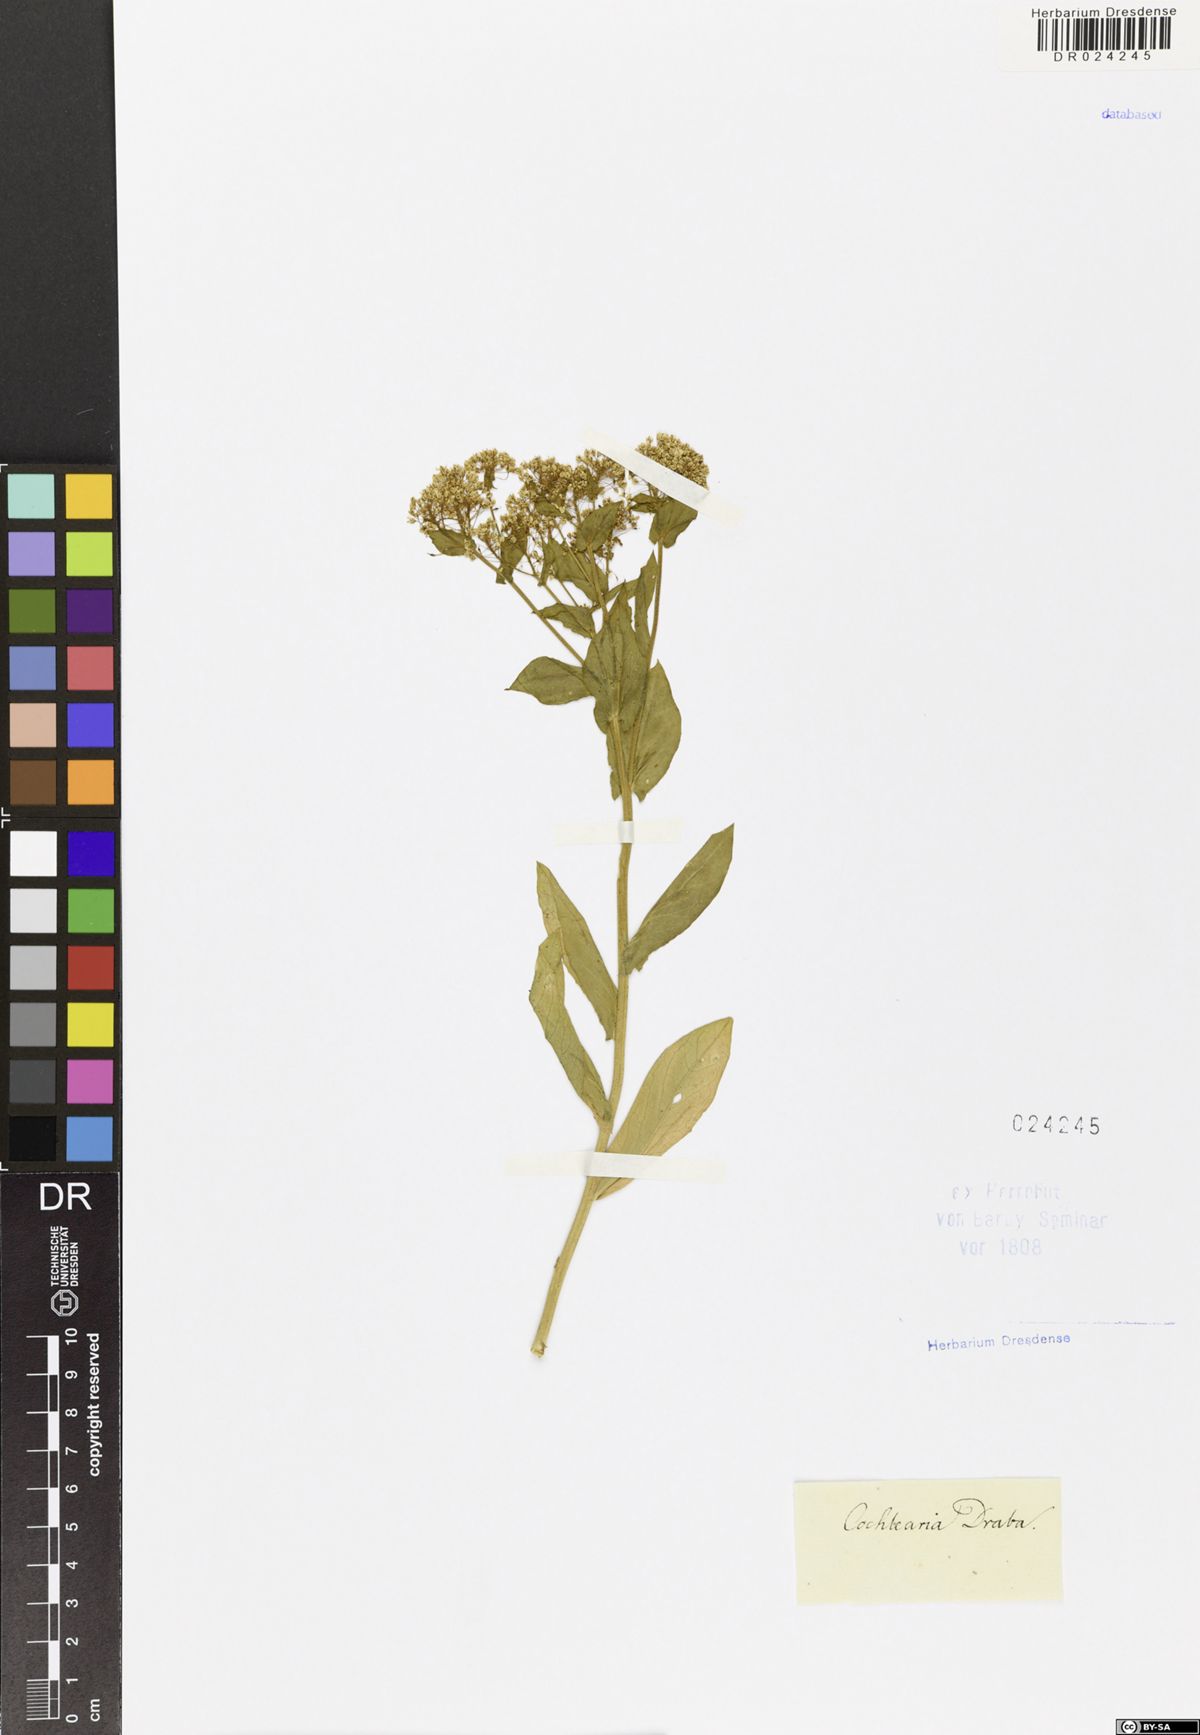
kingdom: Plantae
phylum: Tracheophyta
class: Magnoliopsida
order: Brassicales
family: Brassicaceae
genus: Lepidium
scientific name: Lepidium draba
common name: Hoary cress
